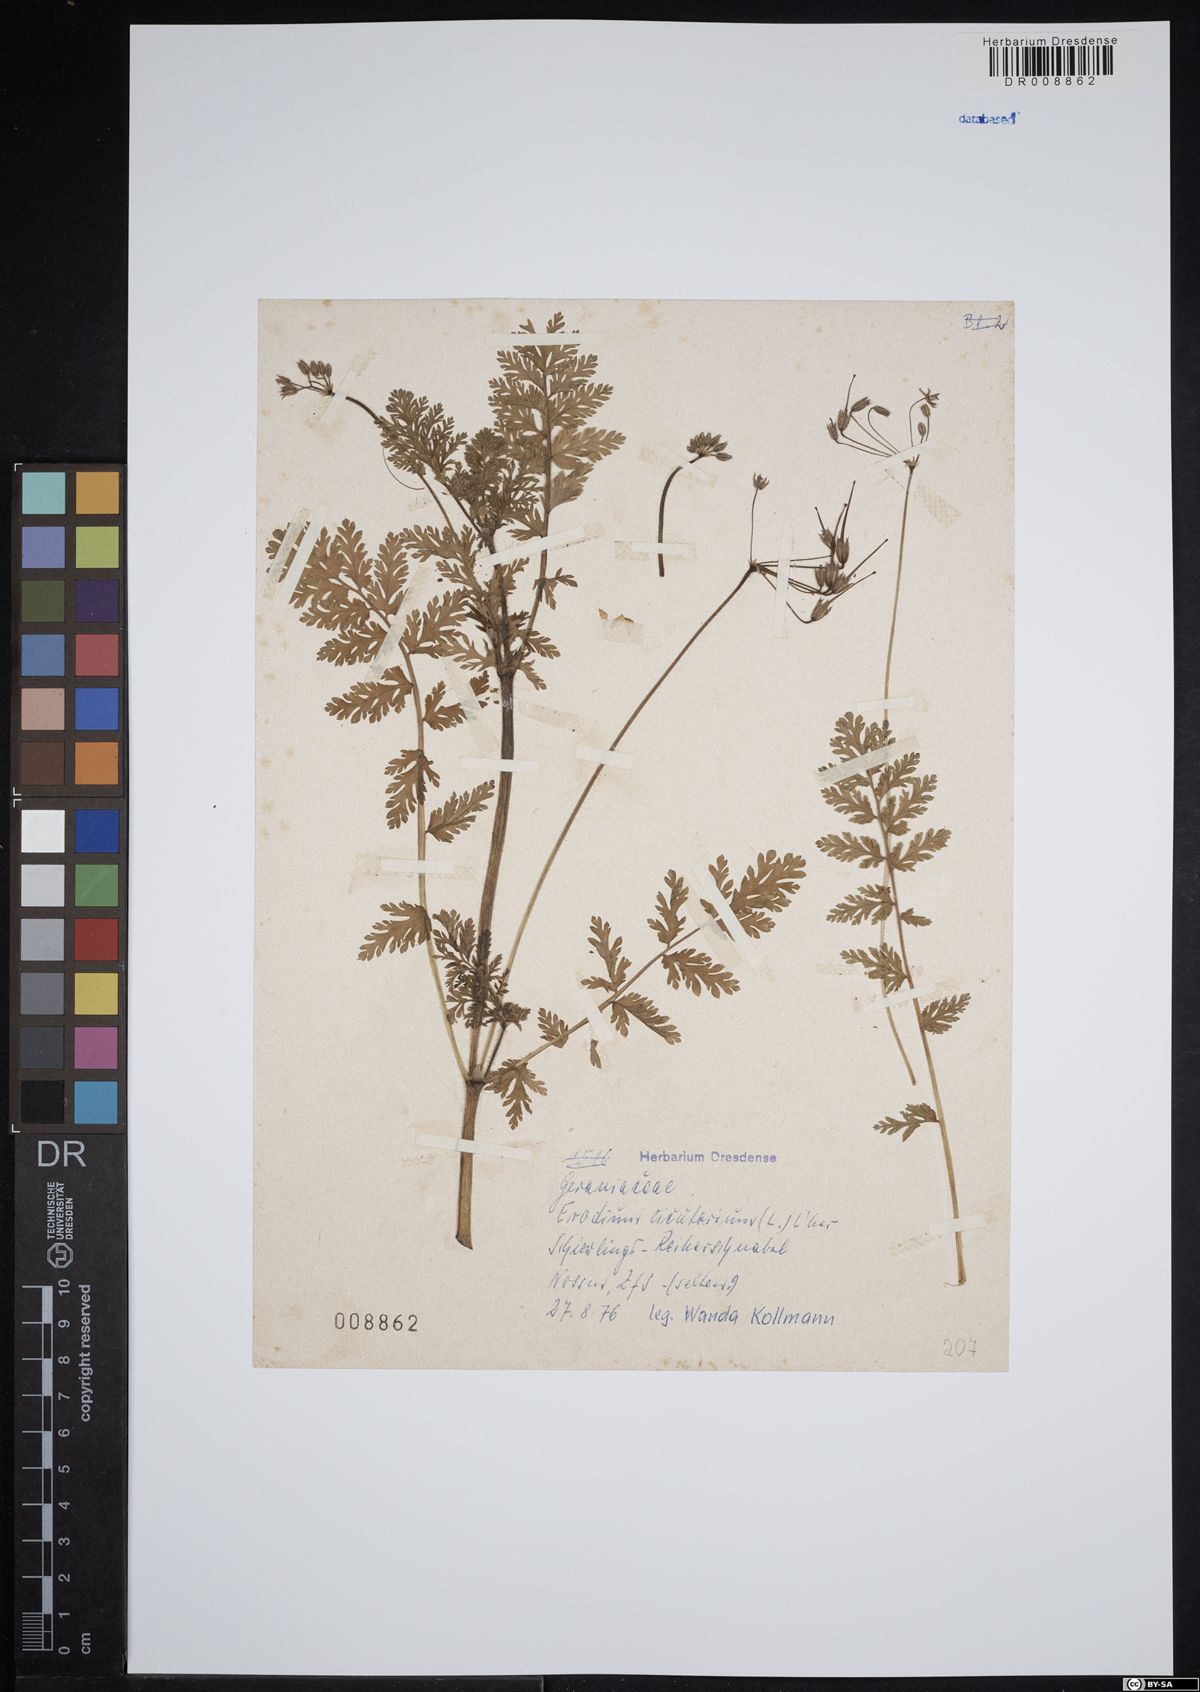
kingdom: Plantae
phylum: Tracheophyta
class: Magnoliopsida
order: Geraniales
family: Geraniaceae
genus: Erodium
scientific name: Erodium cicutarium
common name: Common stork's-bill
